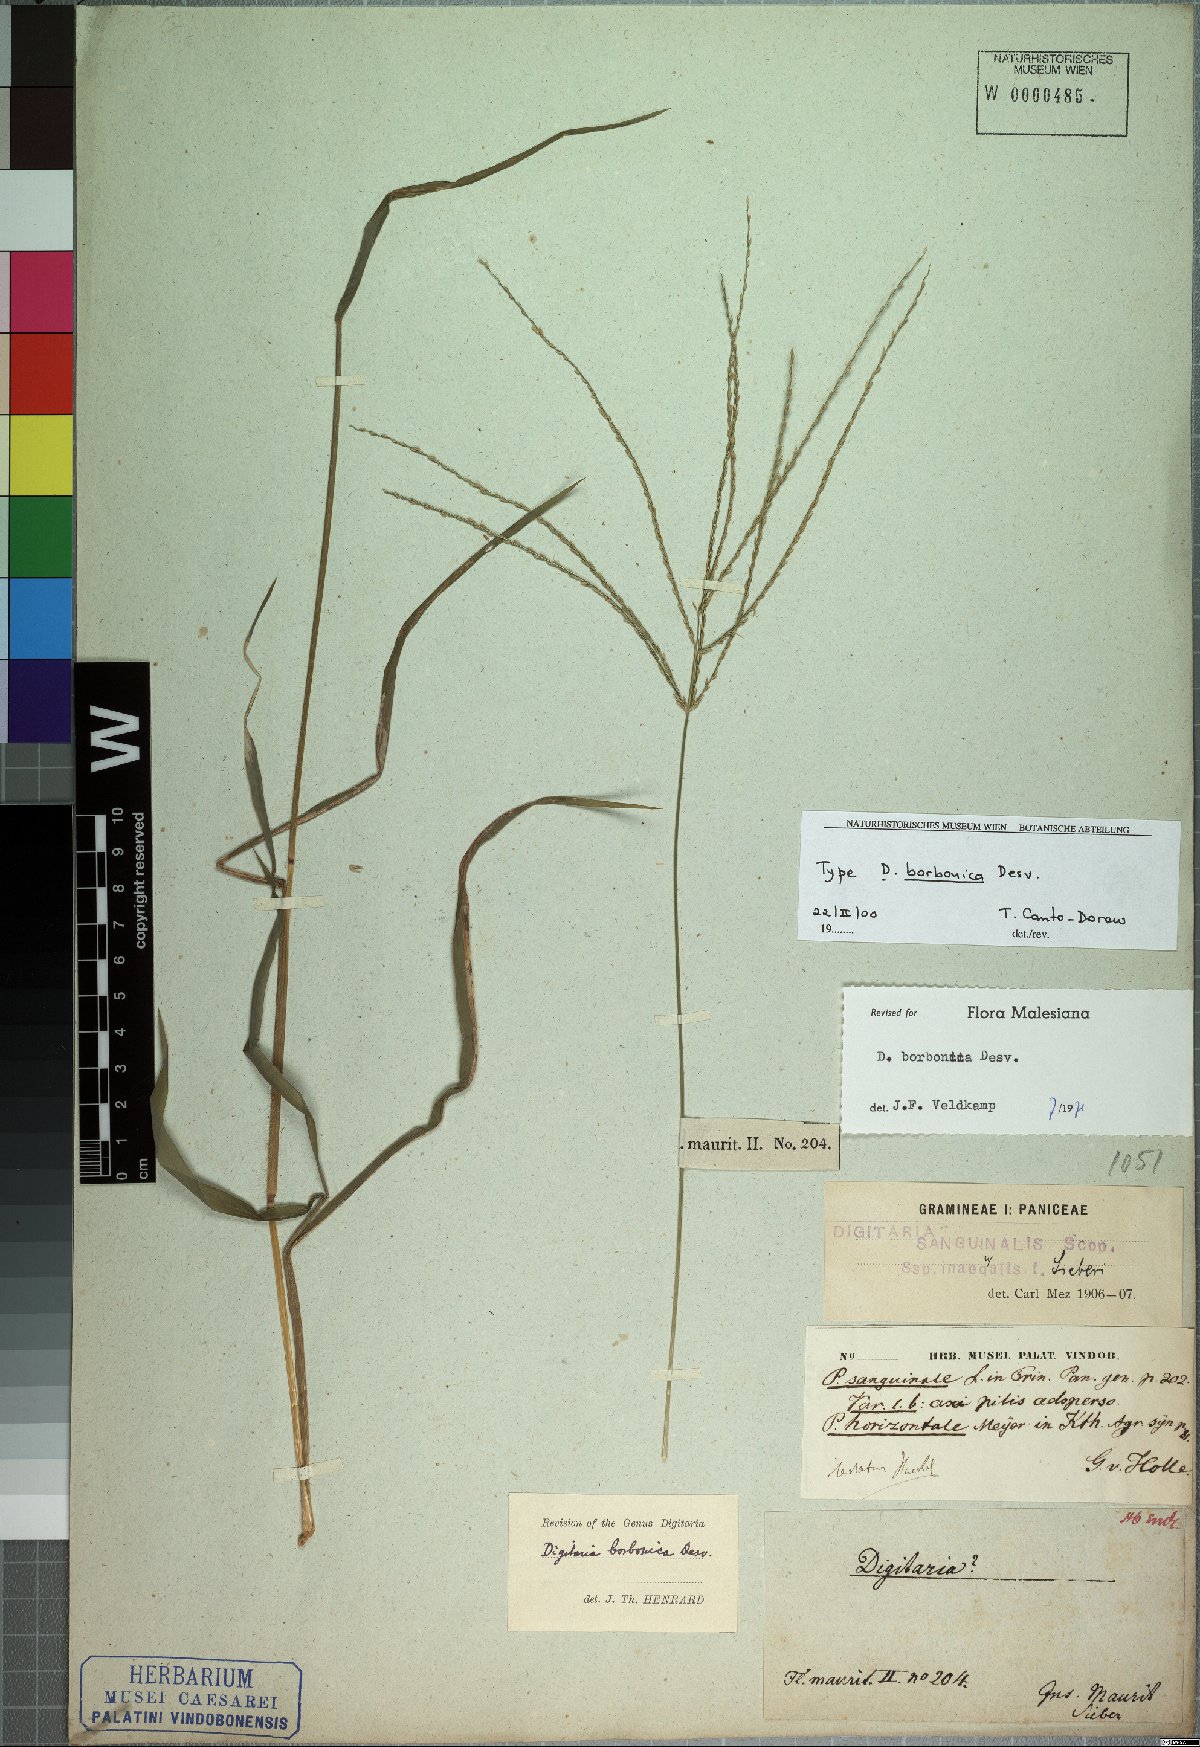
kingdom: Plantae
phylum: Tracheophyta
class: Liliopsida
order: Poales
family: Poaceae
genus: Digitaria
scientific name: Digitaria nuda
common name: Naked crabgrass
